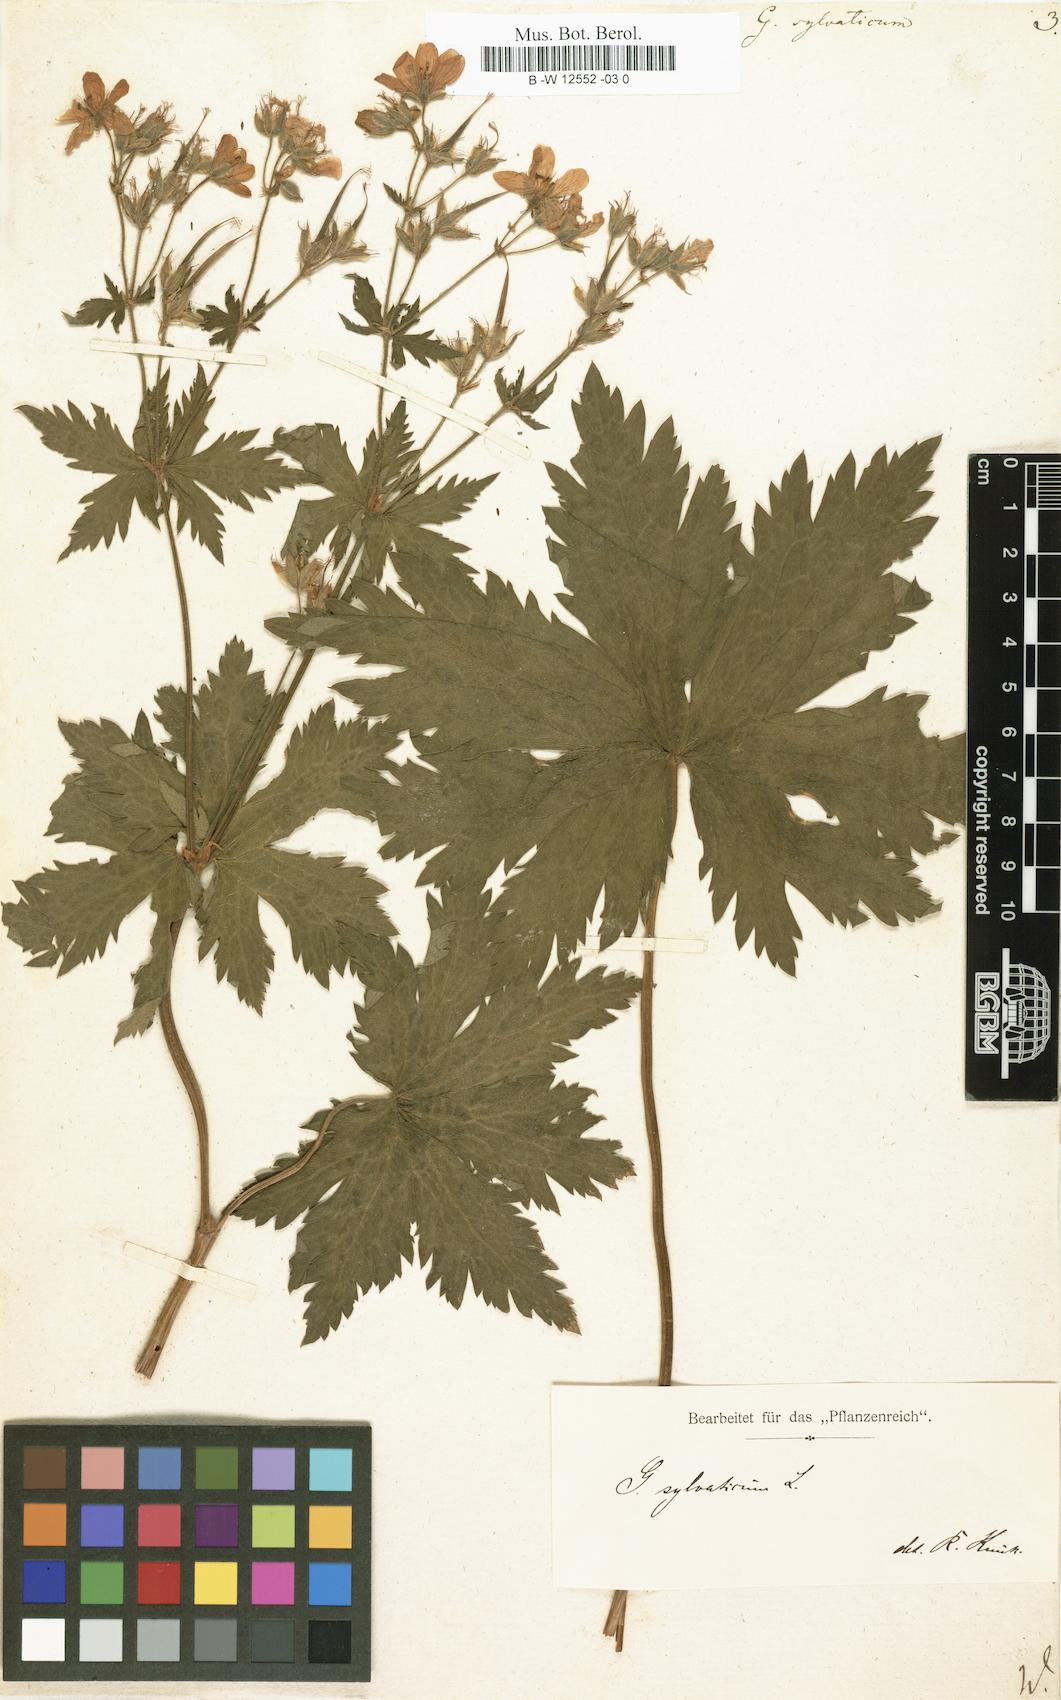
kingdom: Plantae
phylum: Tracheophyta
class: Magnoliopsida
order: Geraniales
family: Geraniaceae
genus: Geranium
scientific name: Geranium sylvaticum
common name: Wood crane's-bill
